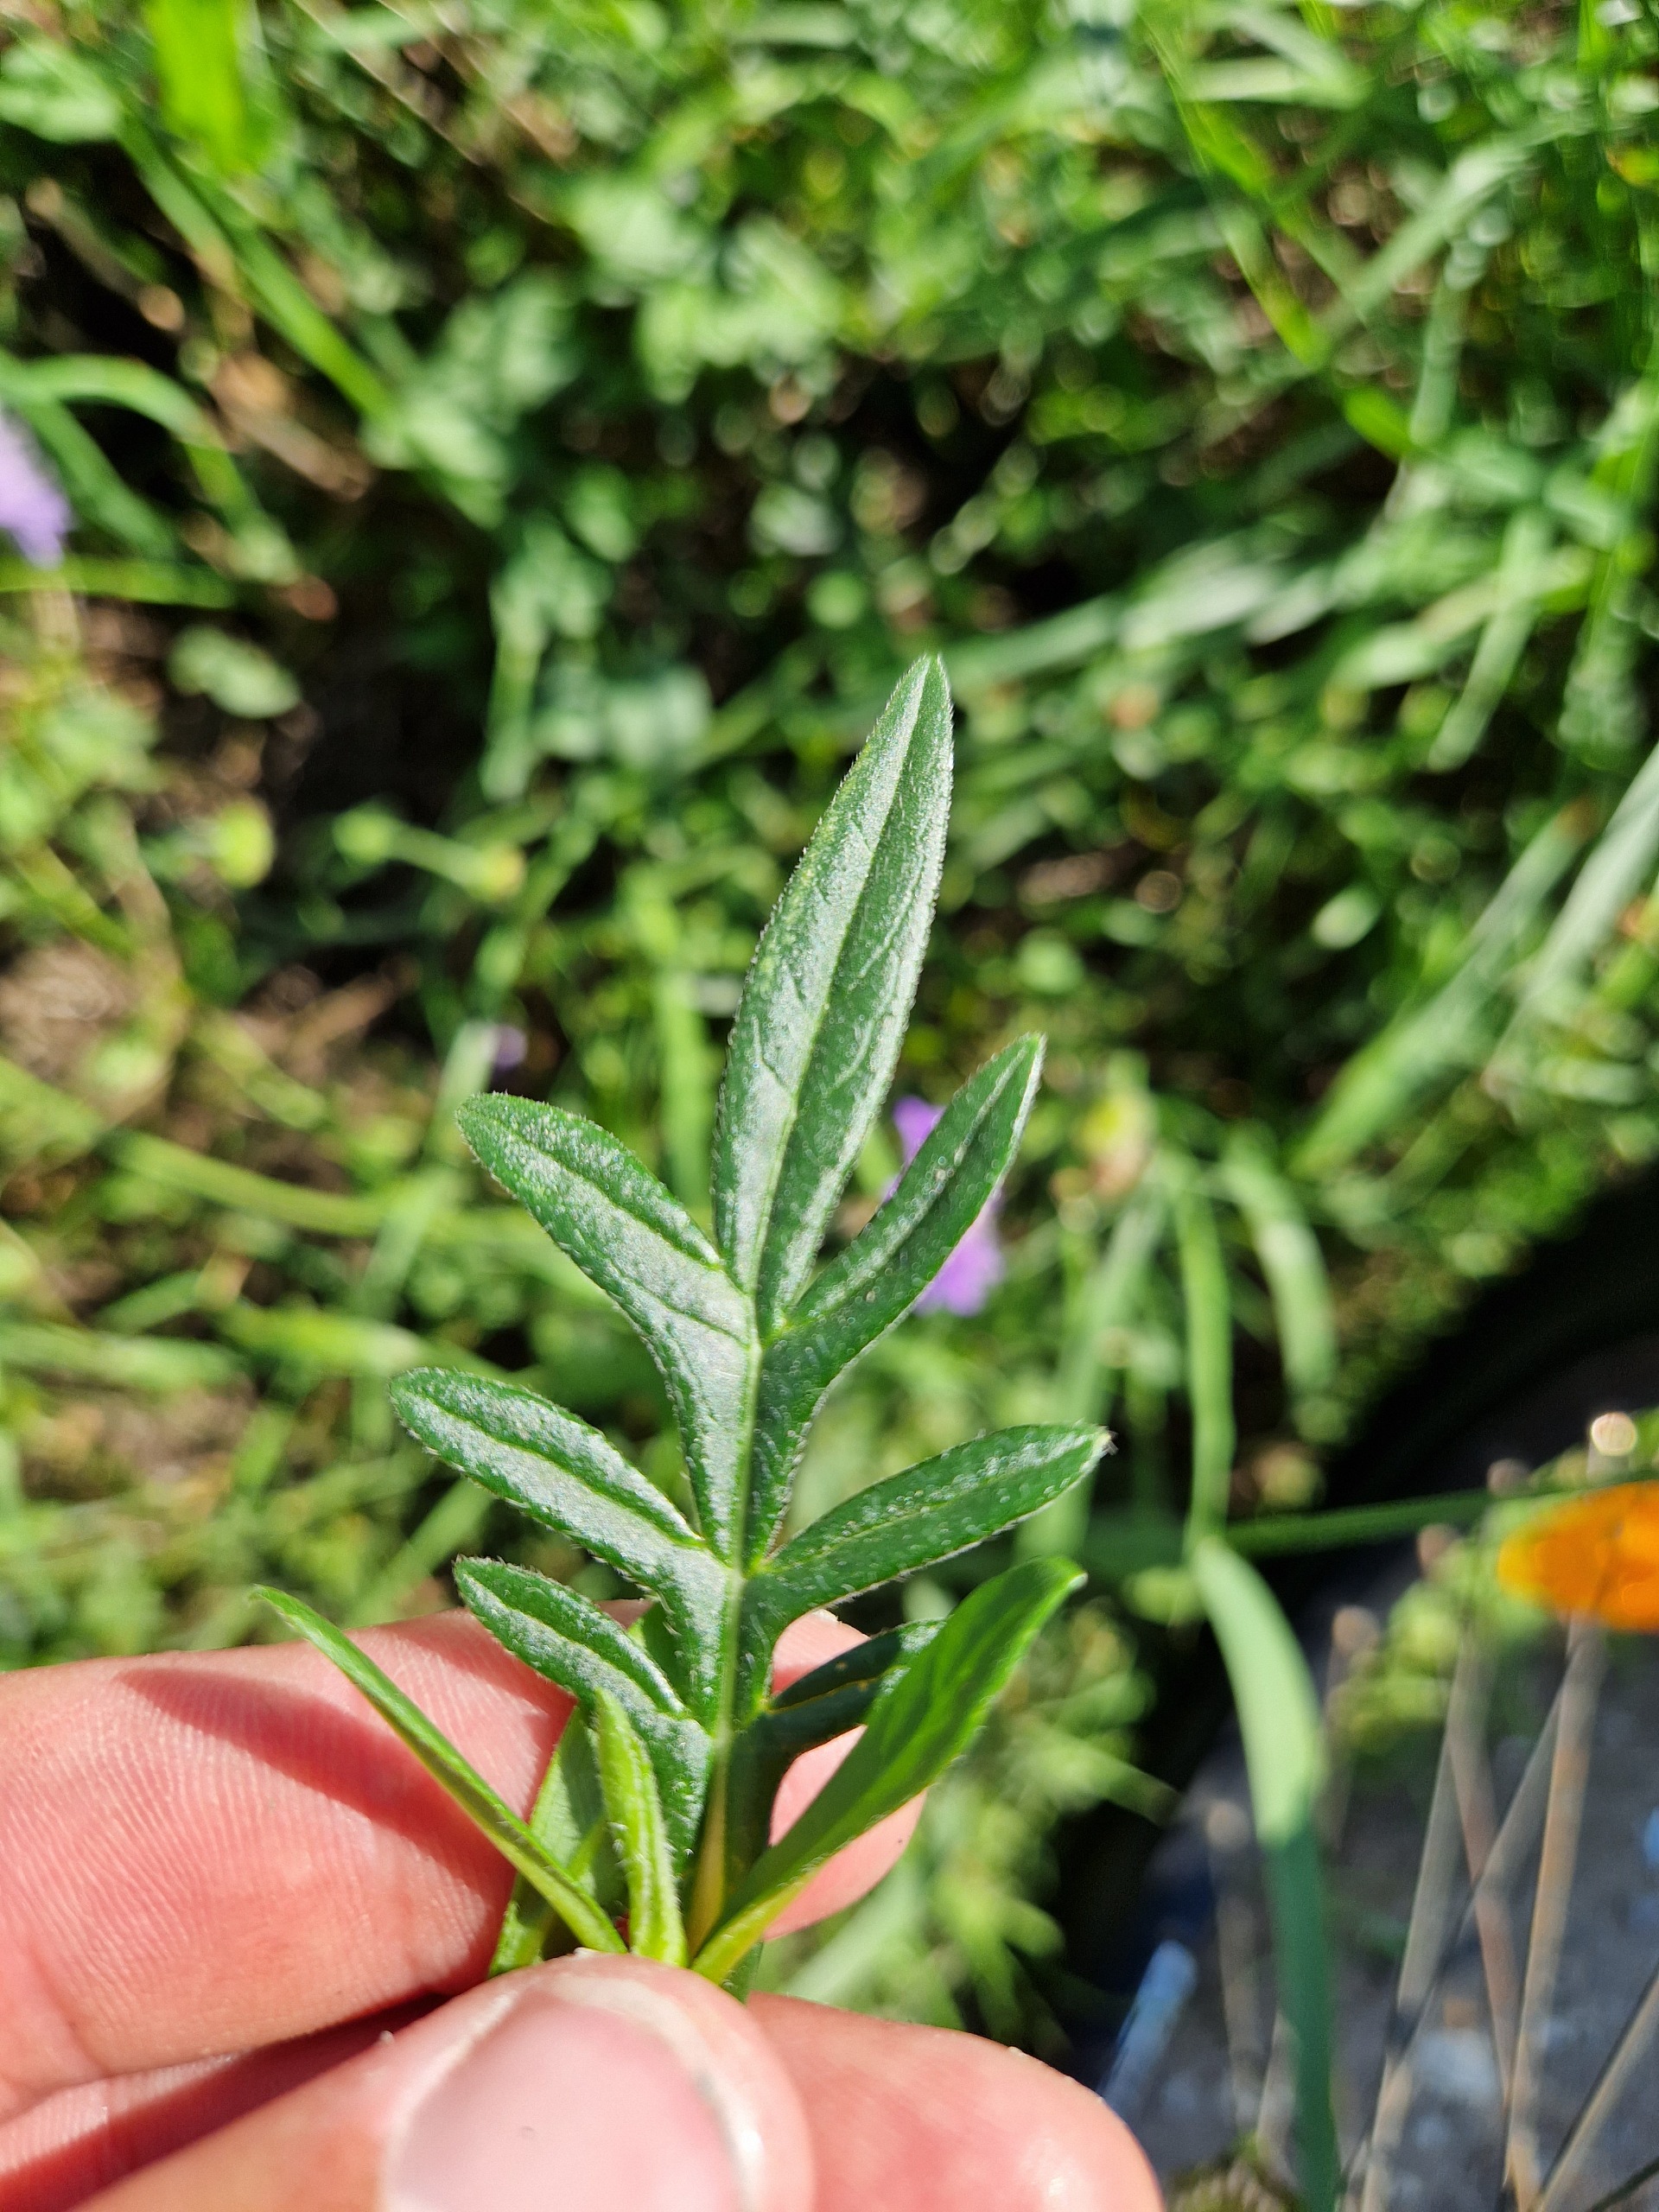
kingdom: Plantae
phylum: Tracheophyta
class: Magnoliopsida
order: Dipsacales
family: Caprifoliaceae
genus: Knautia
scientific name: Knautia arvensis
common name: Blåhat
